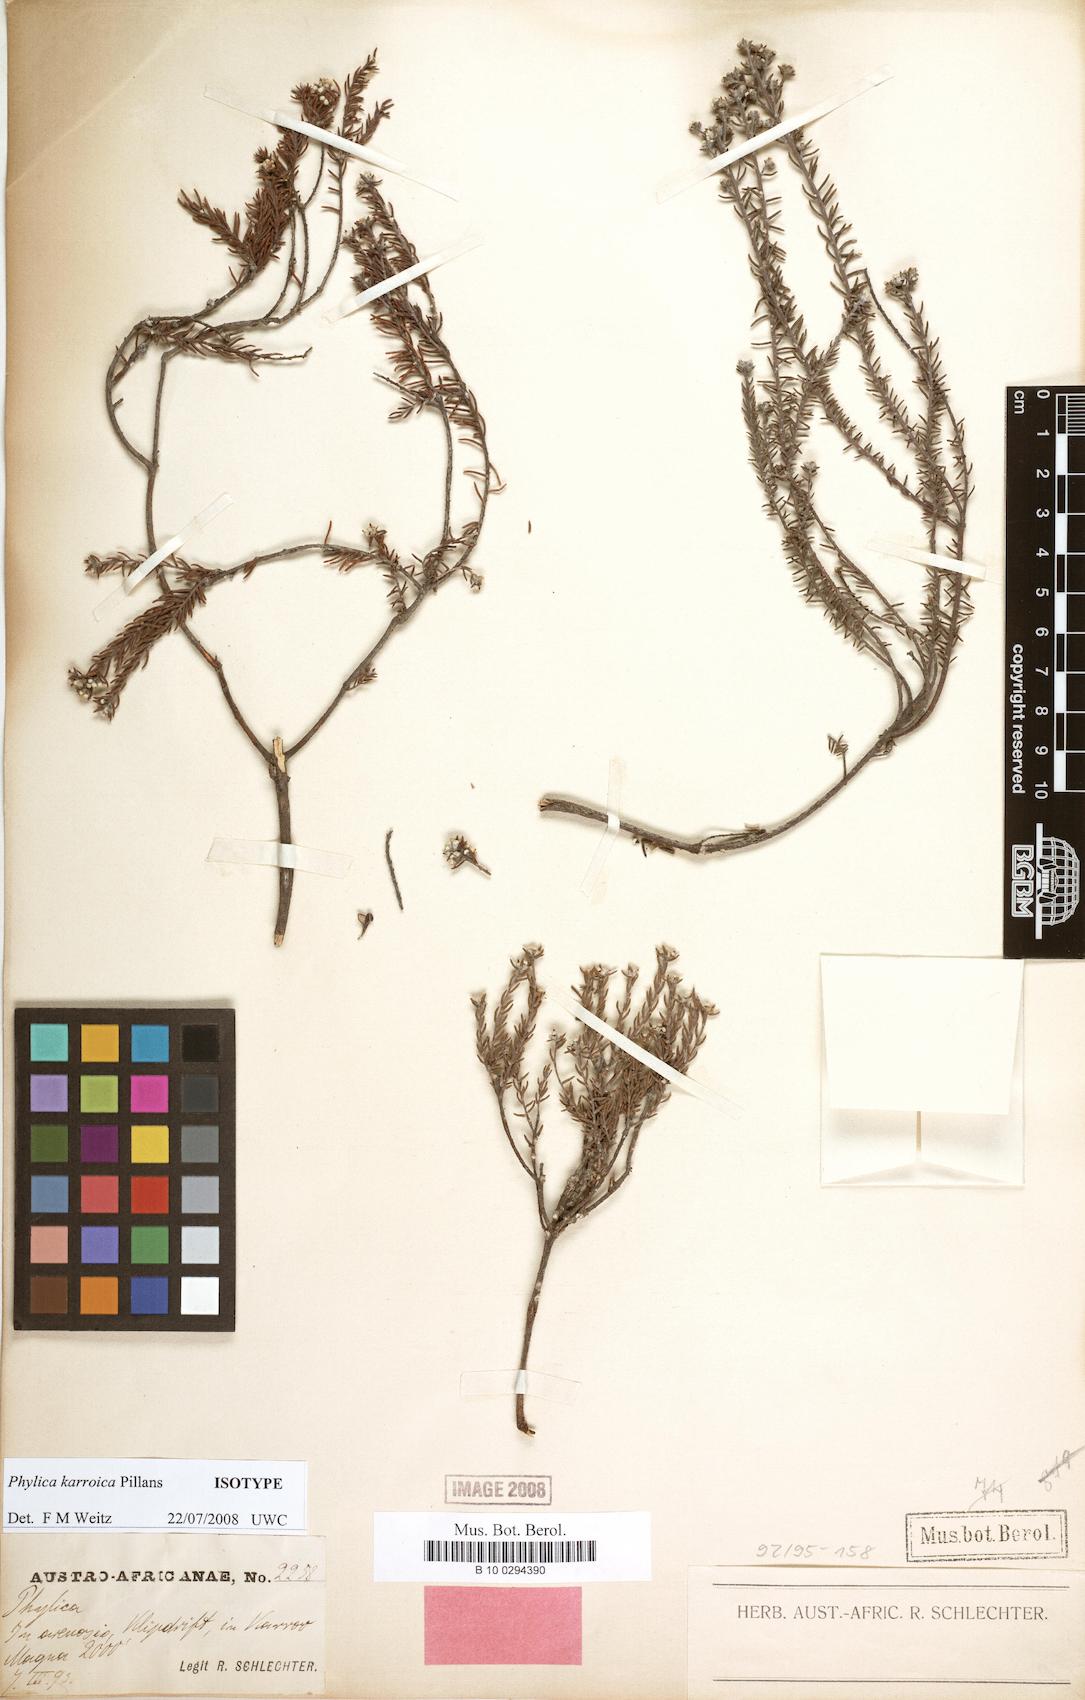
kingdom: Plantae
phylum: Tracheophyta
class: Magnoliopsida
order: Rosales
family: Rhamnaceae
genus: Phylica
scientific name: Phylica karroica
